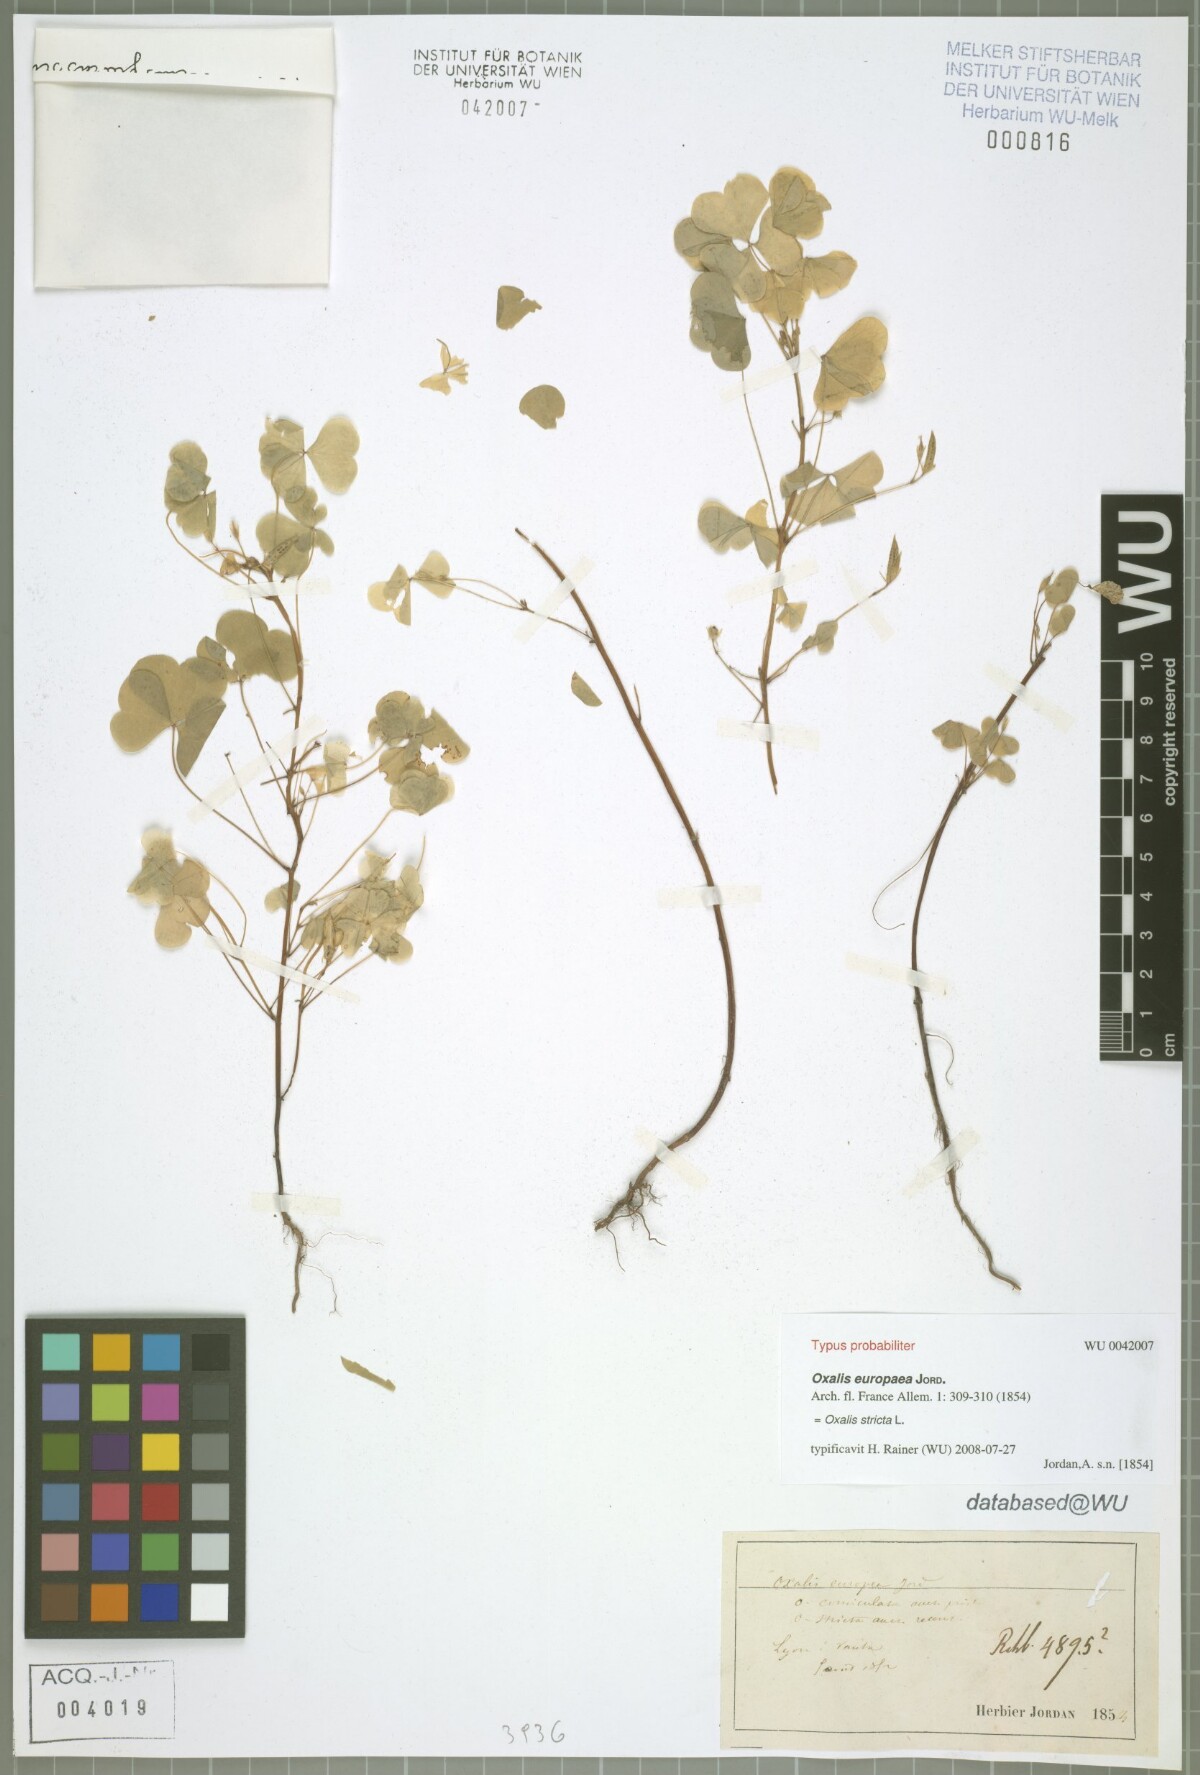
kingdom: Plantae
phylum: Tracheophyta
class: Magnoliopsida
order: Oxalidales
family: Oxalidaceae
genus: Oxalis
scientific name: Oxalis stricta
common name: Upright yellow-sorrel
